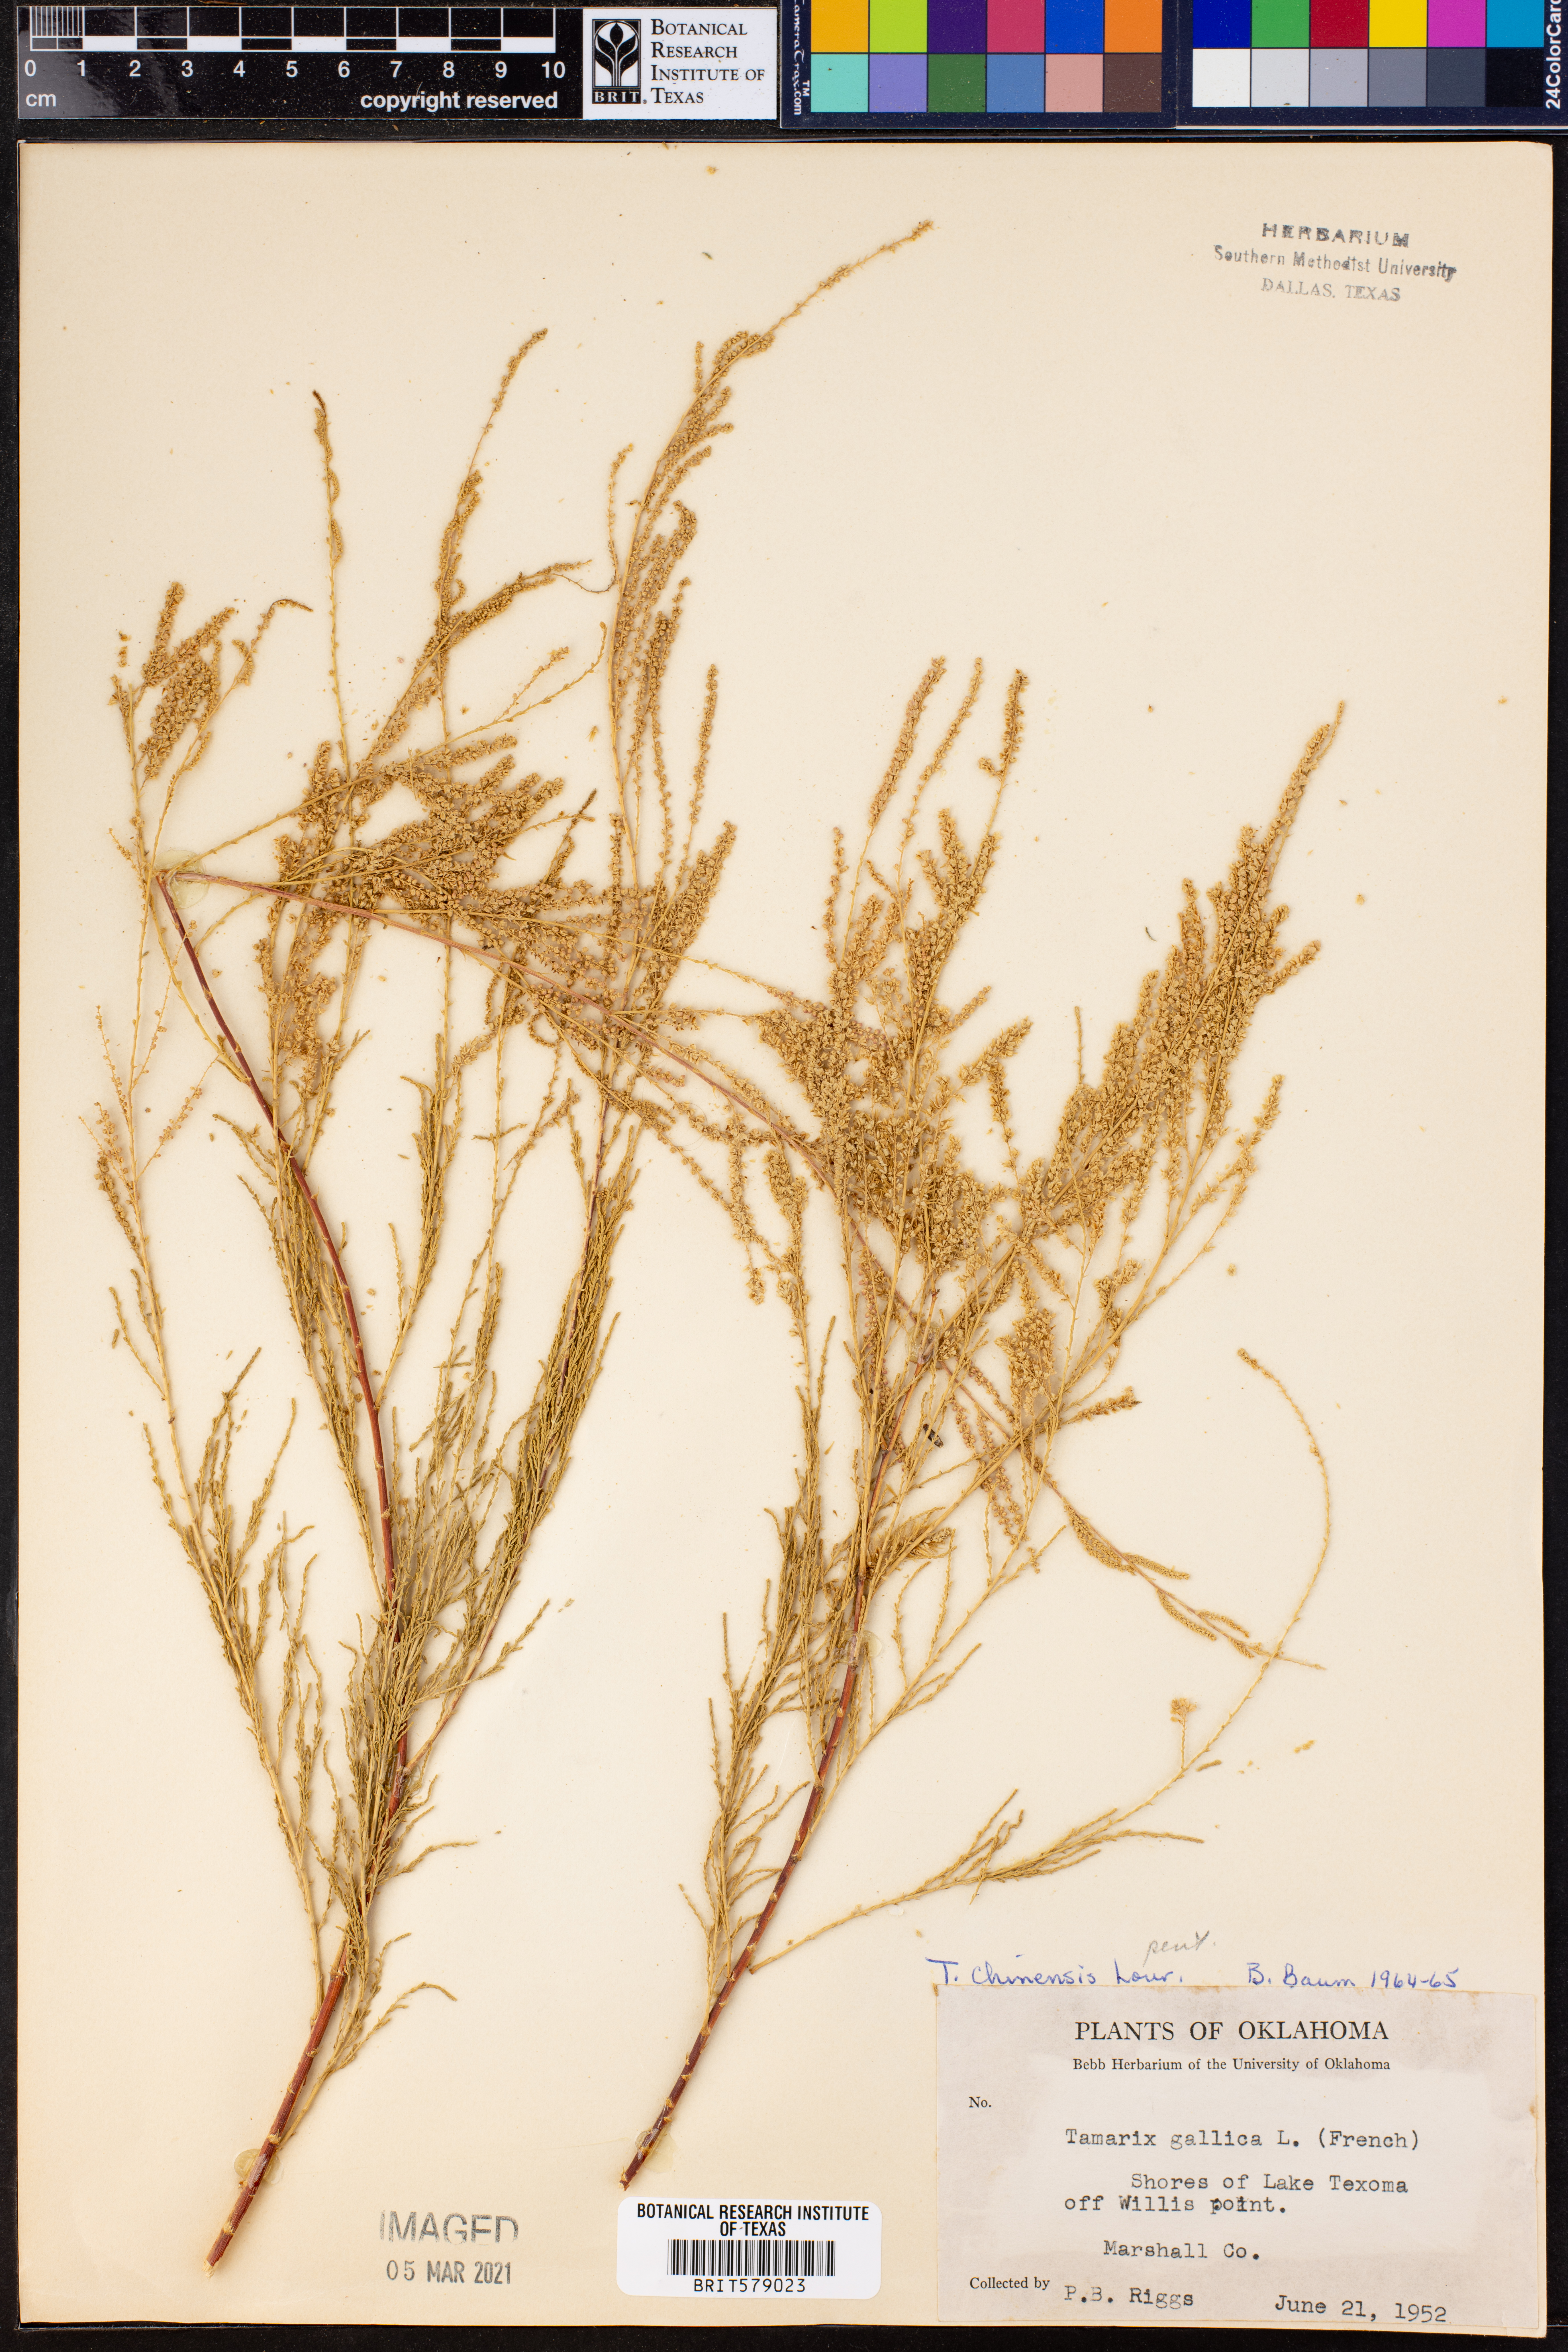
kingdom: Plantae
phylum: Tracheophyta
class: Magnoliopsida
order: Caryophyllales
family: Tamaricaceae
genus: Tamarix
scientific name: Tamarix chinensis
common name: Chinese tamarisk
